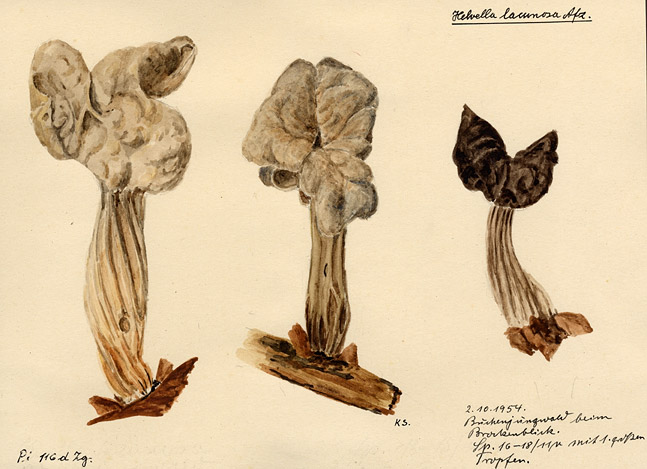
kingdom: Fungi
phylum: Ascomycota
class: Pezizomycetes
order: Pezizales
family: Helvellaceae
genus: Helvella
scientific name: Helvella lacunosa
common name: Elfin saddle
